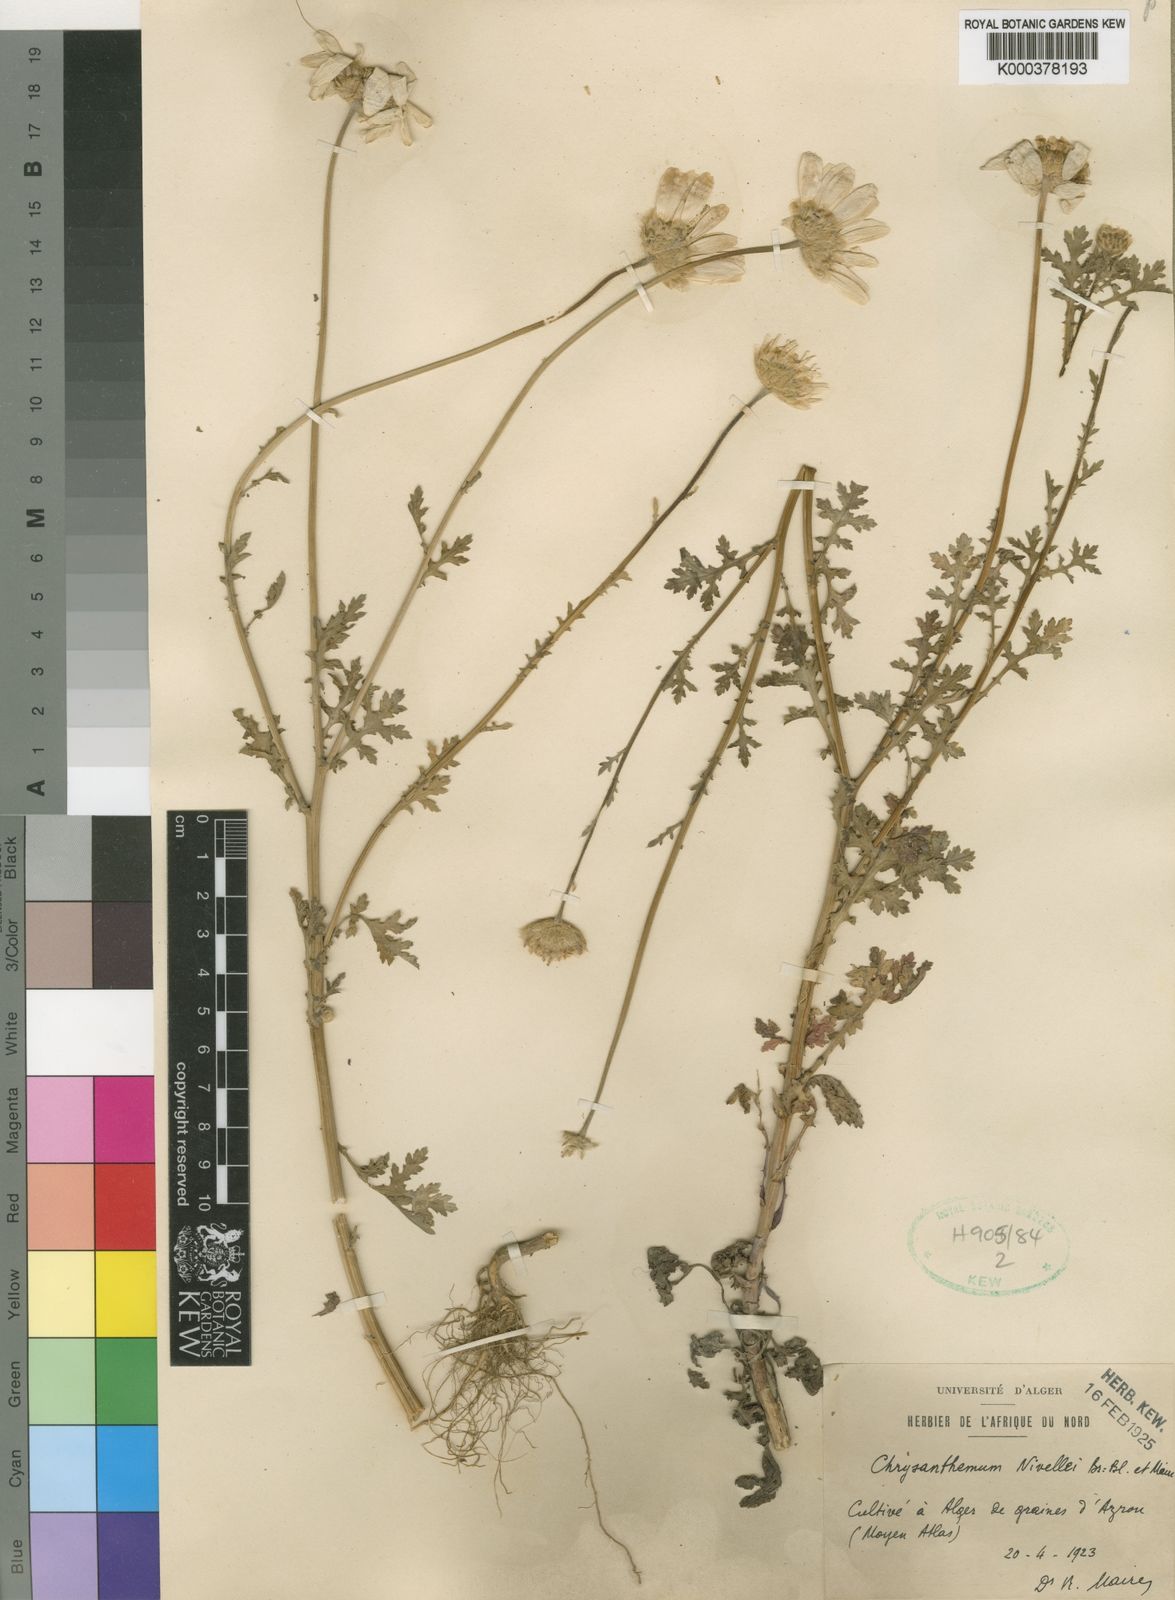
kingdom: Plantae
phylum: Tracheophyta
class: Magnoliopsida
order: Asterales
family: Asteraceae
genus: Nivellea
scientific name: Nivellea nivellei
